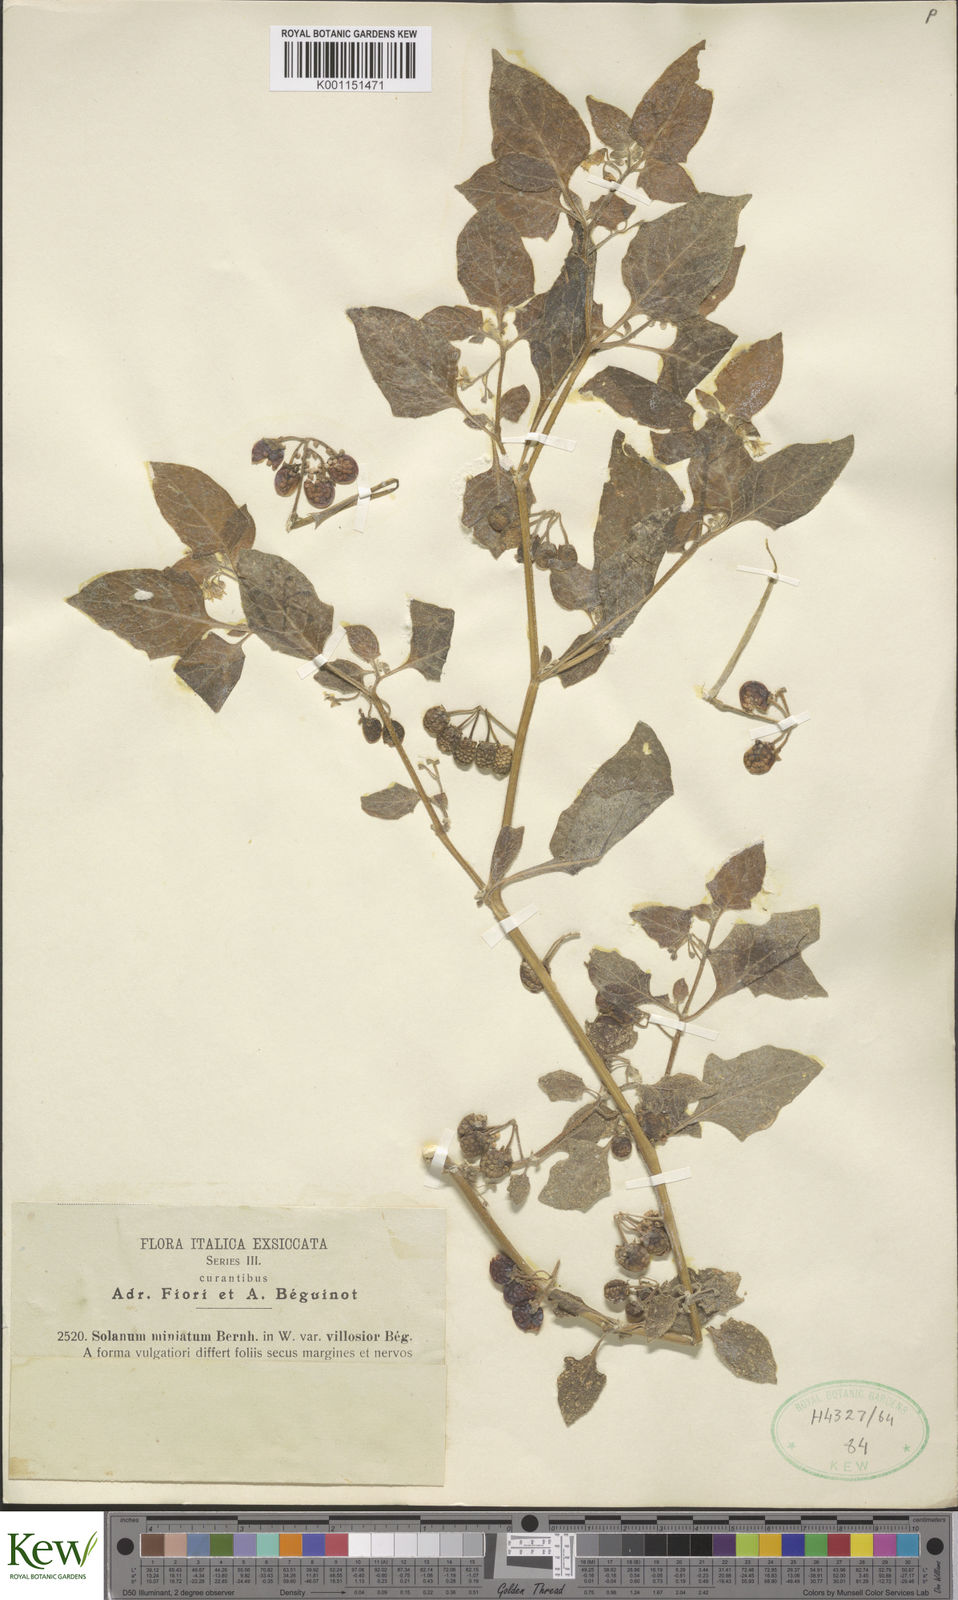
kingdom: Plantae
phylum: Tracheophyta
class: Magnoliopsida
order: Solanales
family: Solanaceae
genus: Solanum
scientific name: Solanum hoehnei
